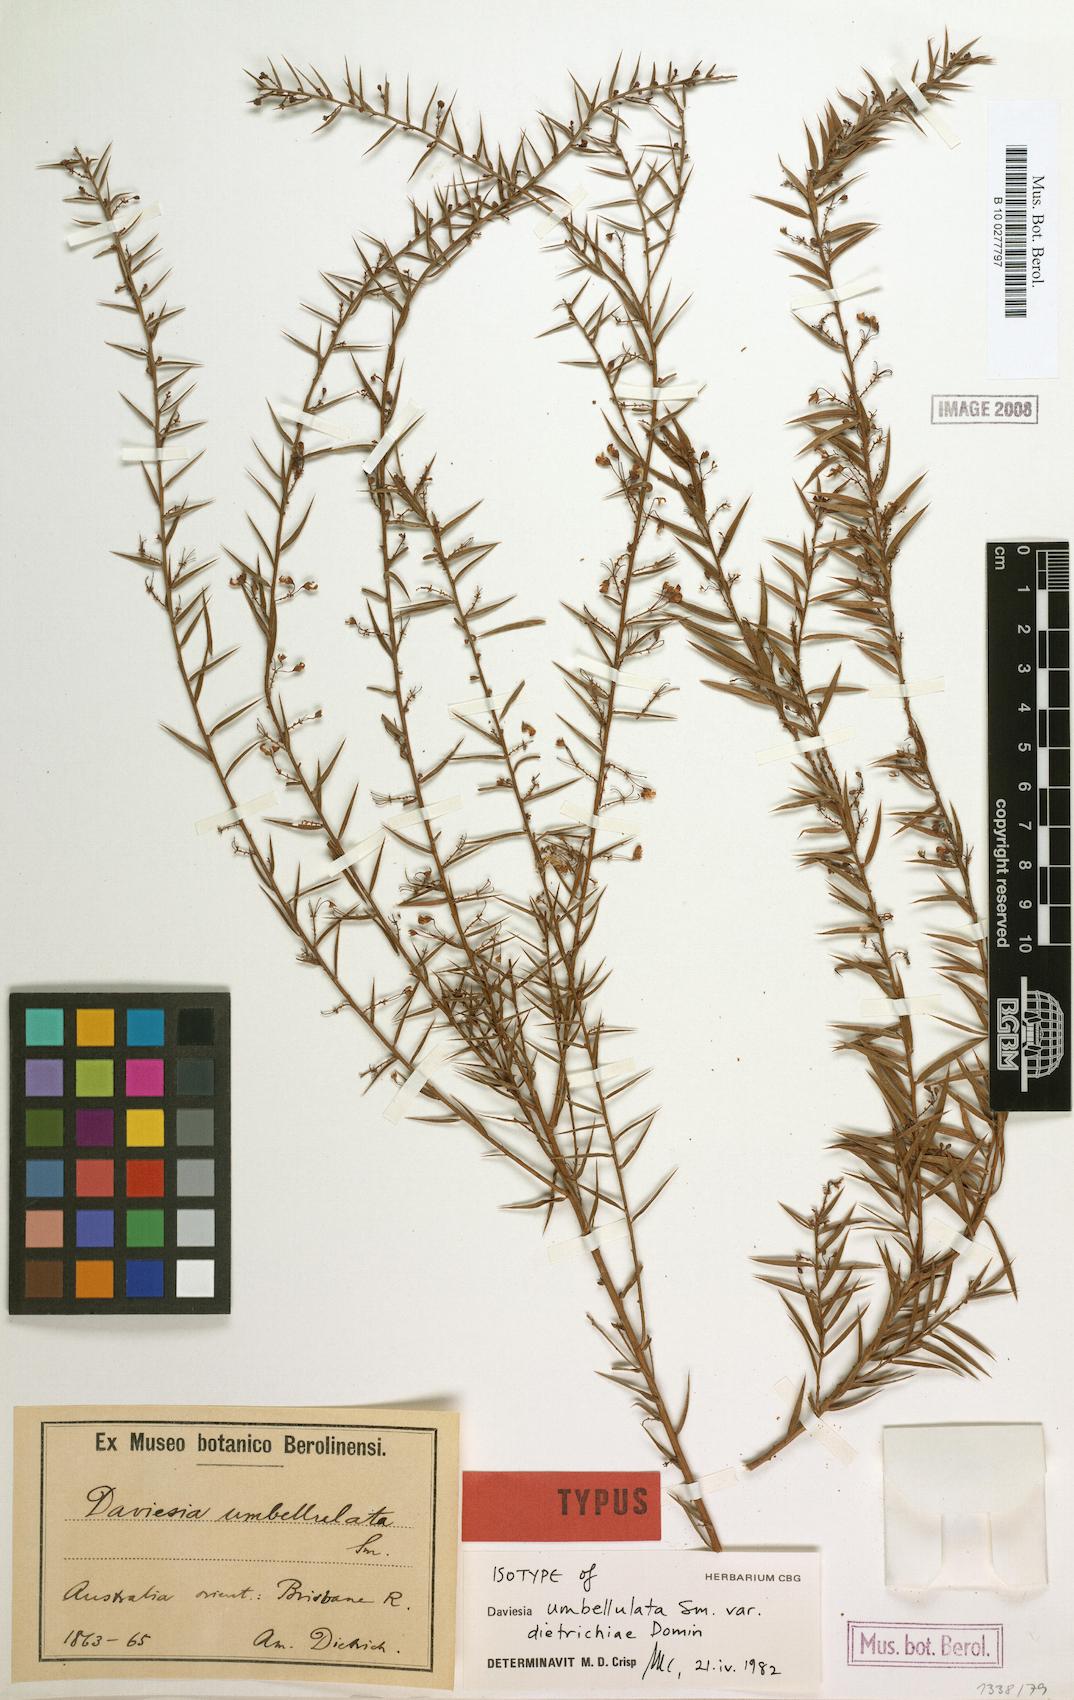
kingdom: Plantae
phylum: Tracheophyta
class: Magnoliopsida
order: Fabales
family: Fabaceae
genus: Daviesia
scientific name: Daviesia umbellulata
